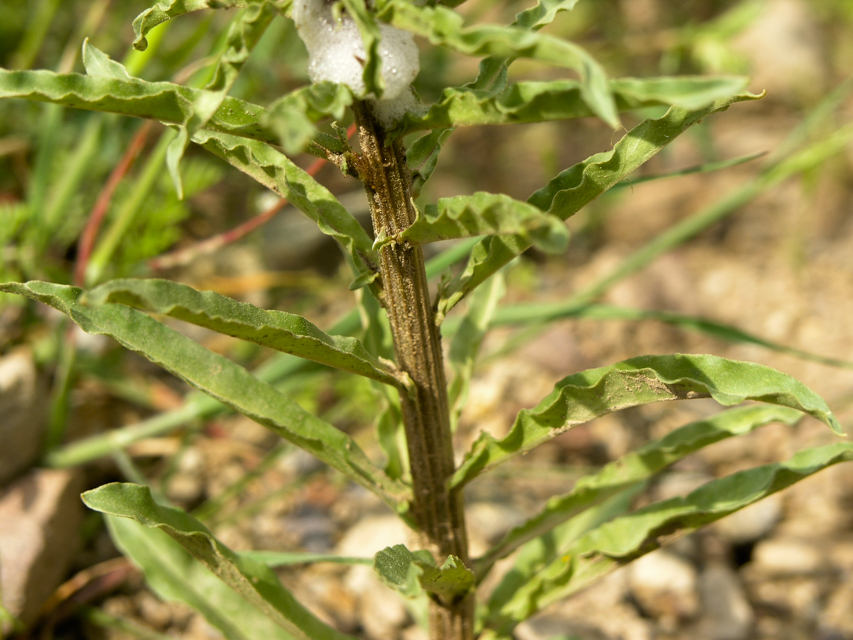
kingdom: Plantae
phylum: Tracheophyta
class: Magnoliopsida
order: Ericales
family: Primulaceae
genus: Lysimachia
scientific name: Lysimachia atropurpurea
